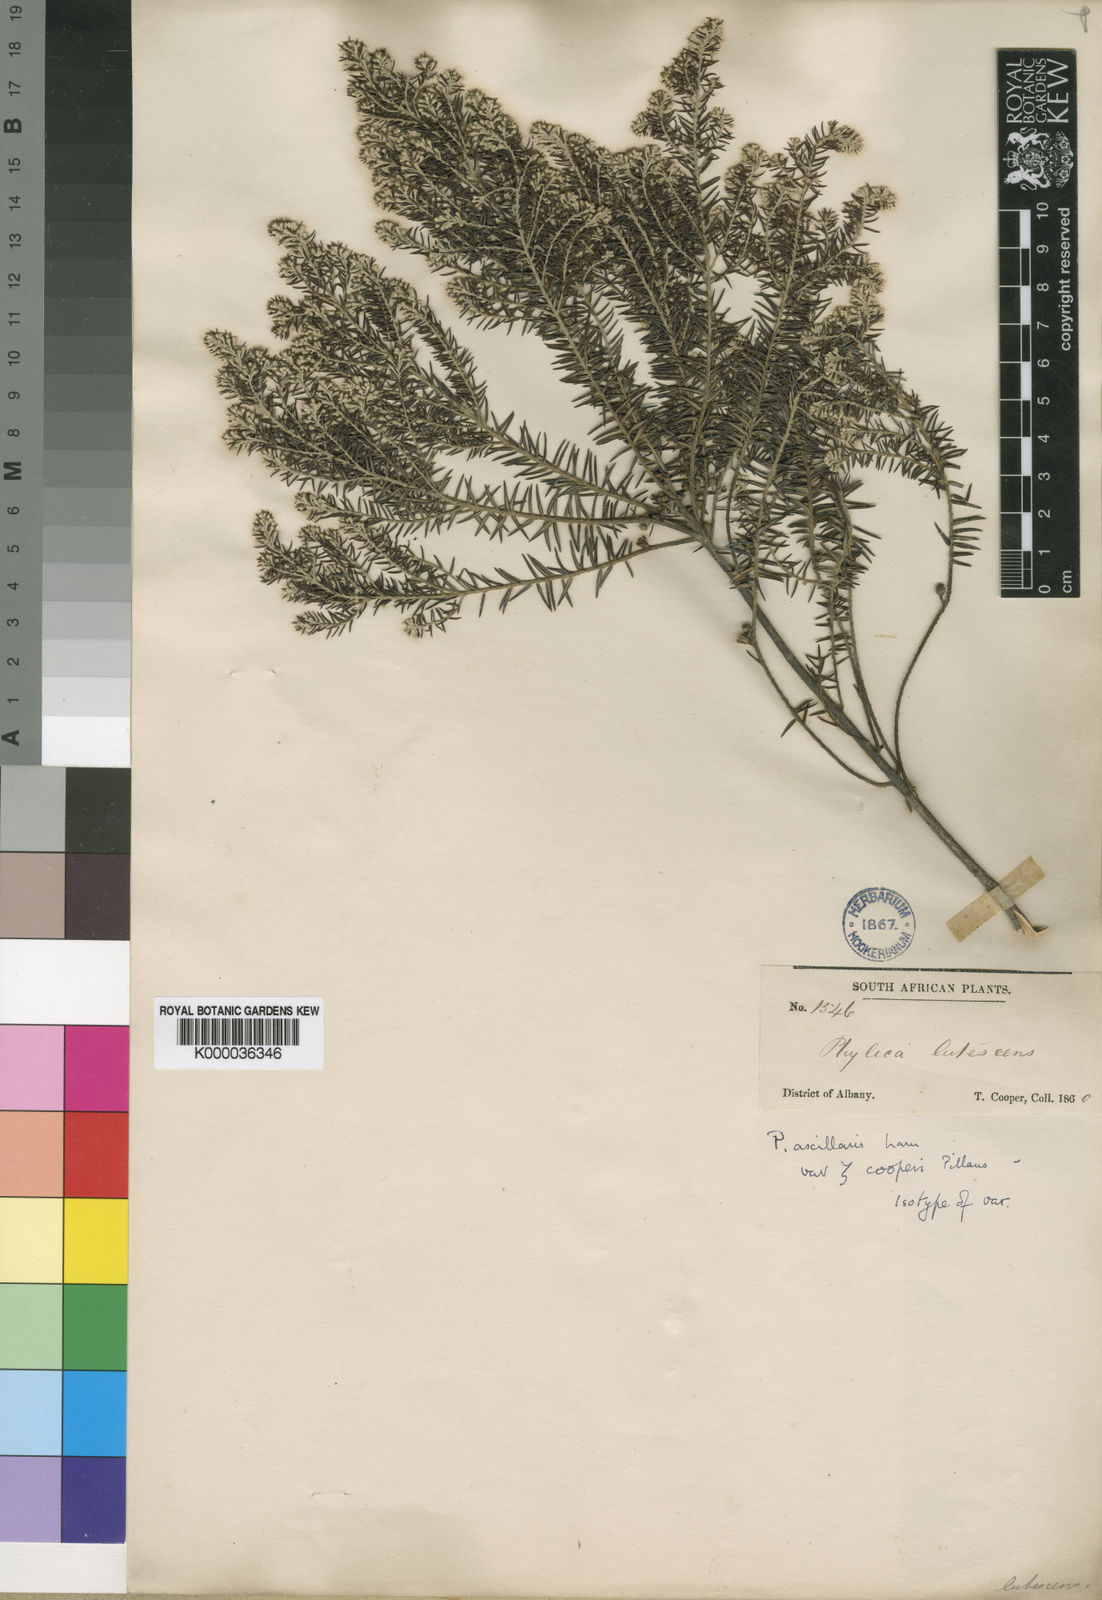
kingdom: Plantae
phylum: Tracheophyta
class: Magnoliopsida
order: Rosales
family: Rhamnaceae
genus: Phylica
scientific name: Phylica axillaris
